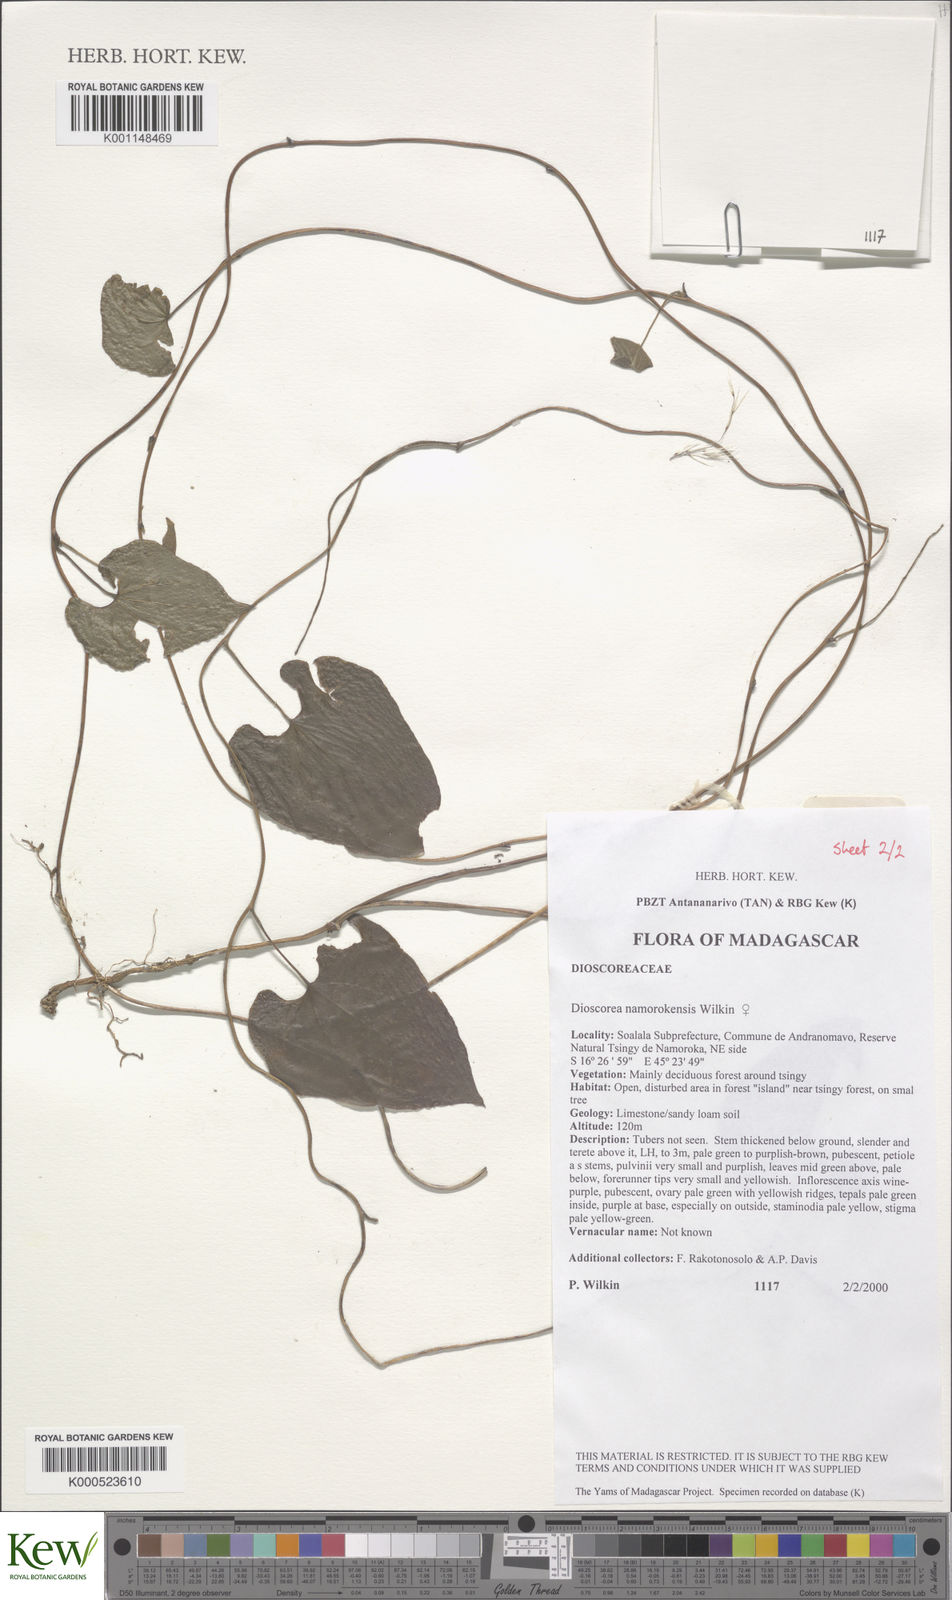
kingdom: Plantae
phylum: Tracheophyta
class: Liliopsida
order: Dioscoreales
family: Dioscoreaceae
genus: Dioscorea
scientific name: Dioscorea namorokensis
